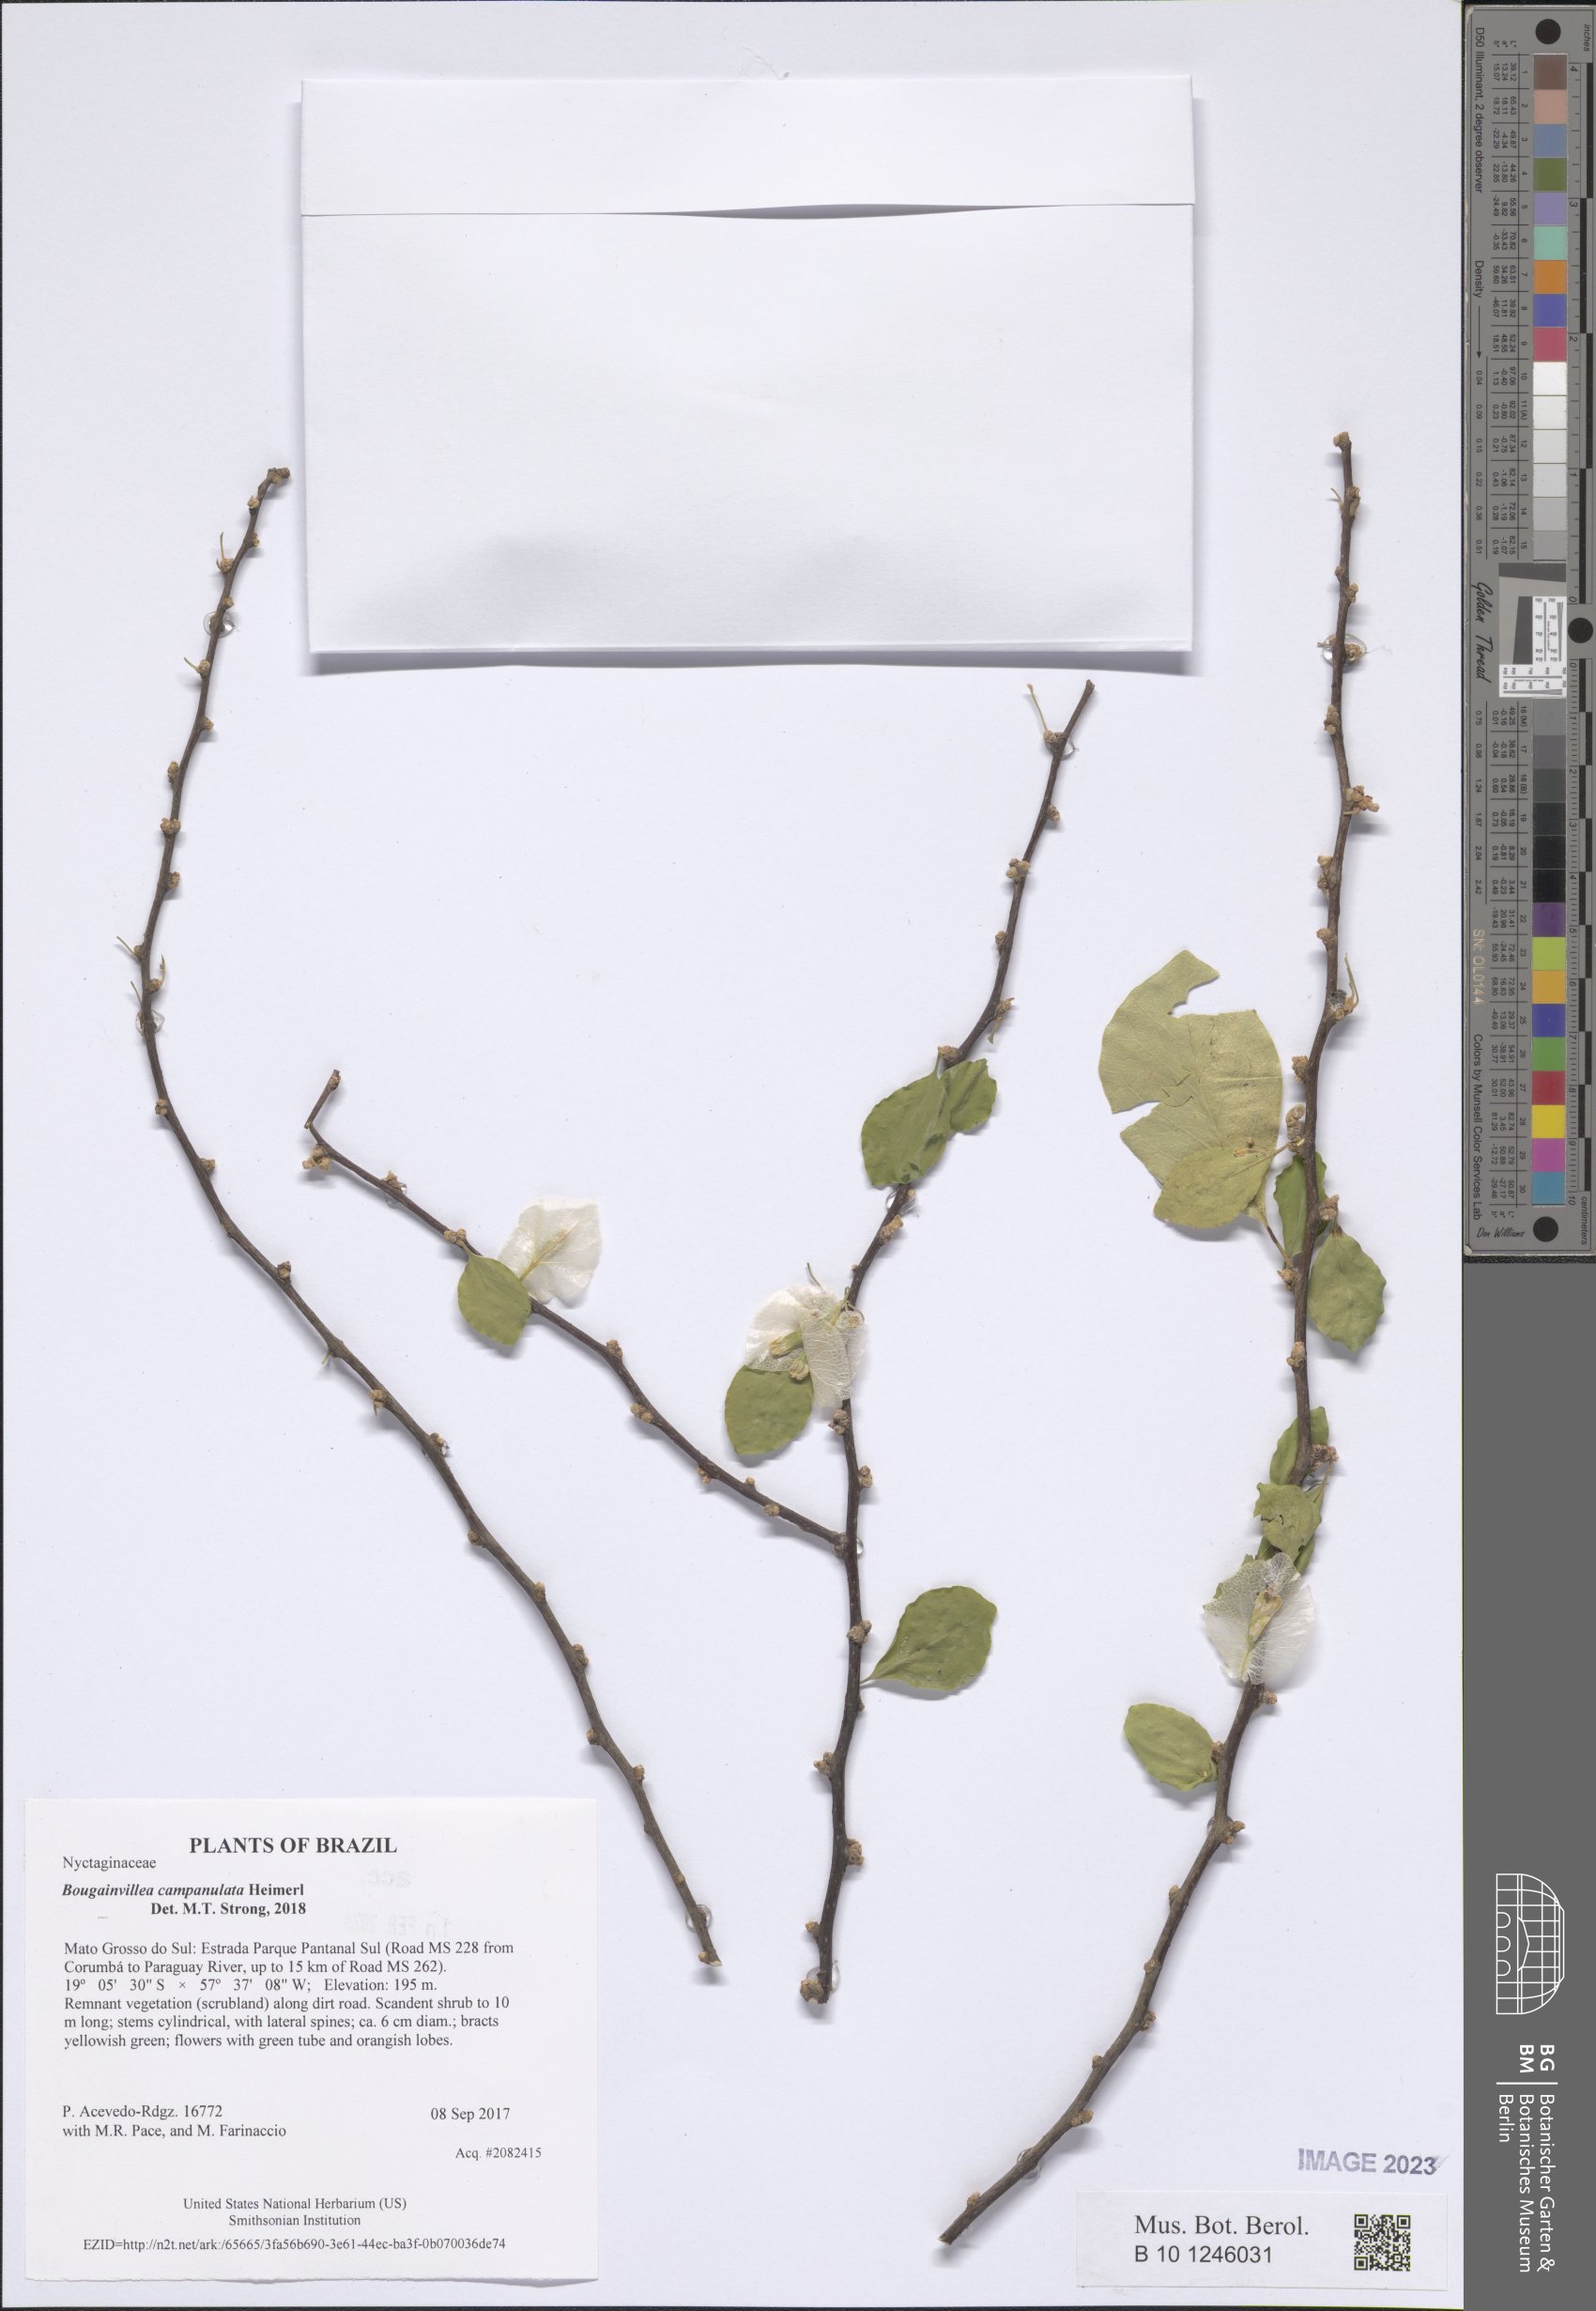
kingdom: Plantae
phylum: Tracheophyta
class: Magnoliopsida
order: Caryophyllales
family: Nyctaginaceae
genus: Bougainvillea
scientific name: Bougainvillea campanulata
